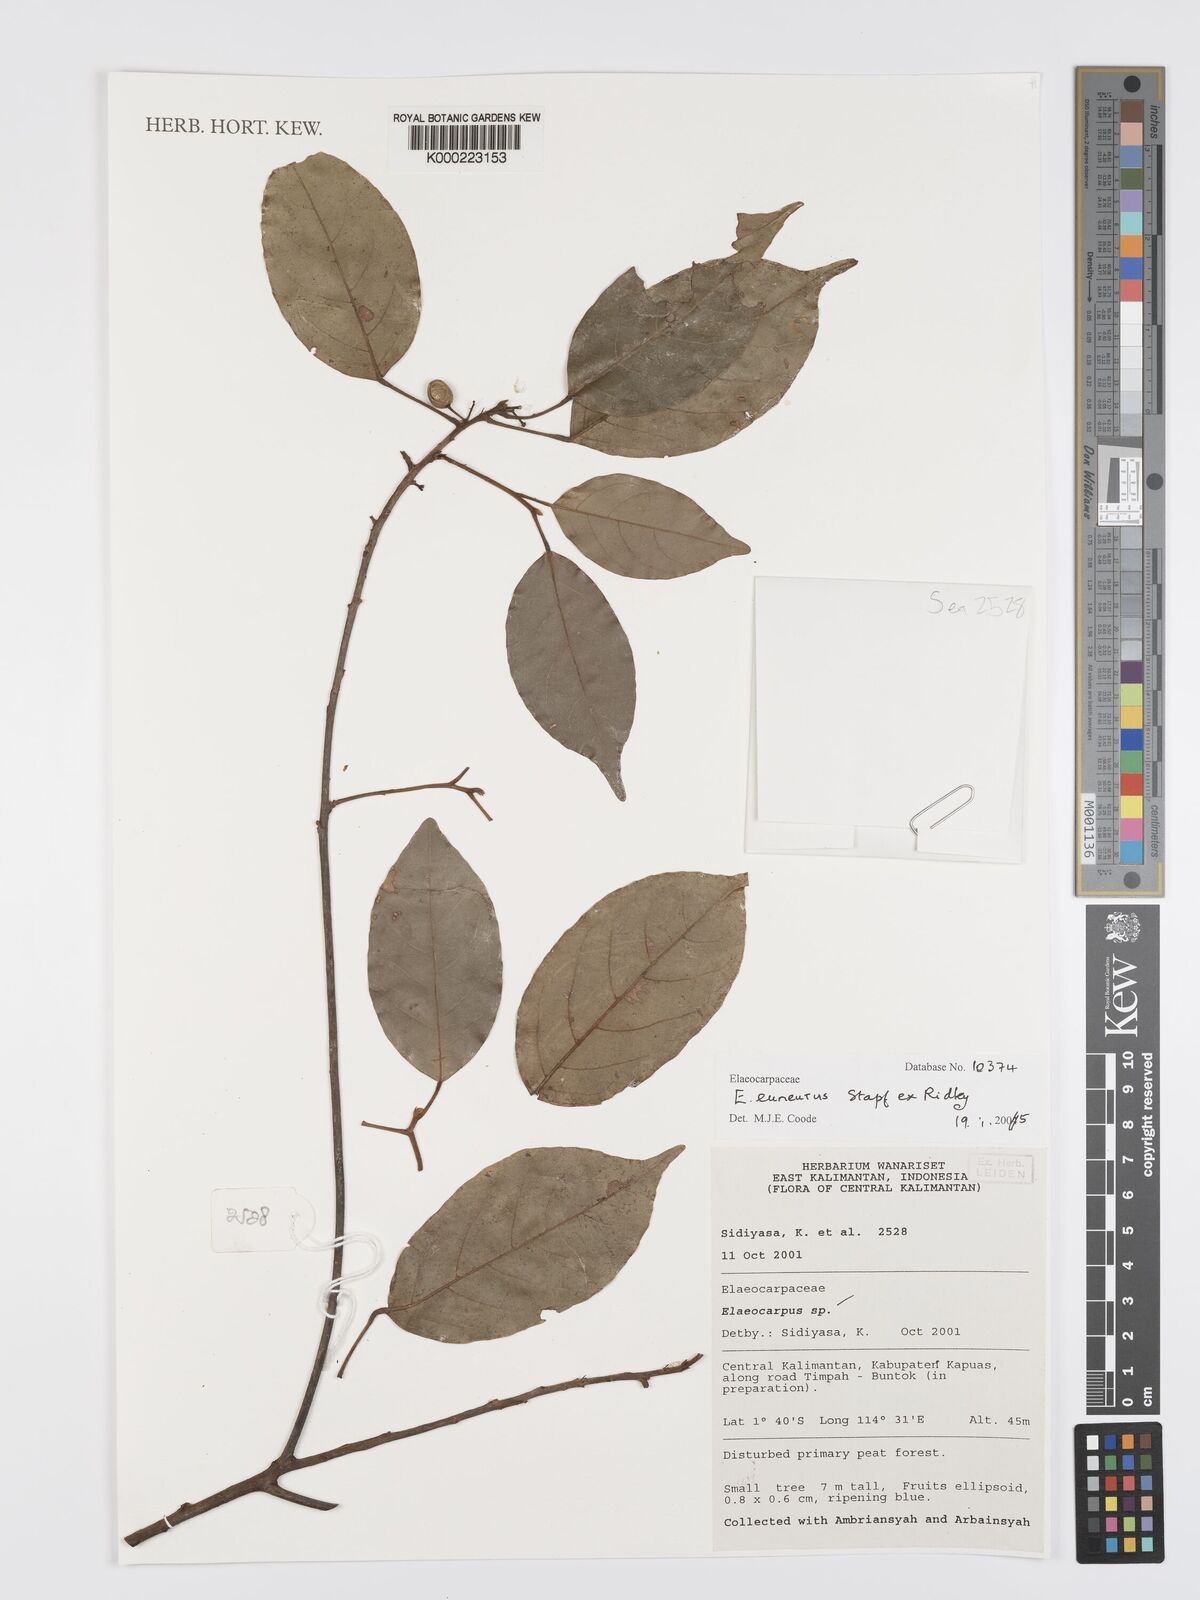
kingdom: Plantae
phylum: Tracheophyta
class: Magnoliopsida
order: Oxalidales
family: Elaeocarpaceae
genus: Elaeocarpus
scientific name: Elaeocarpus euneurus
